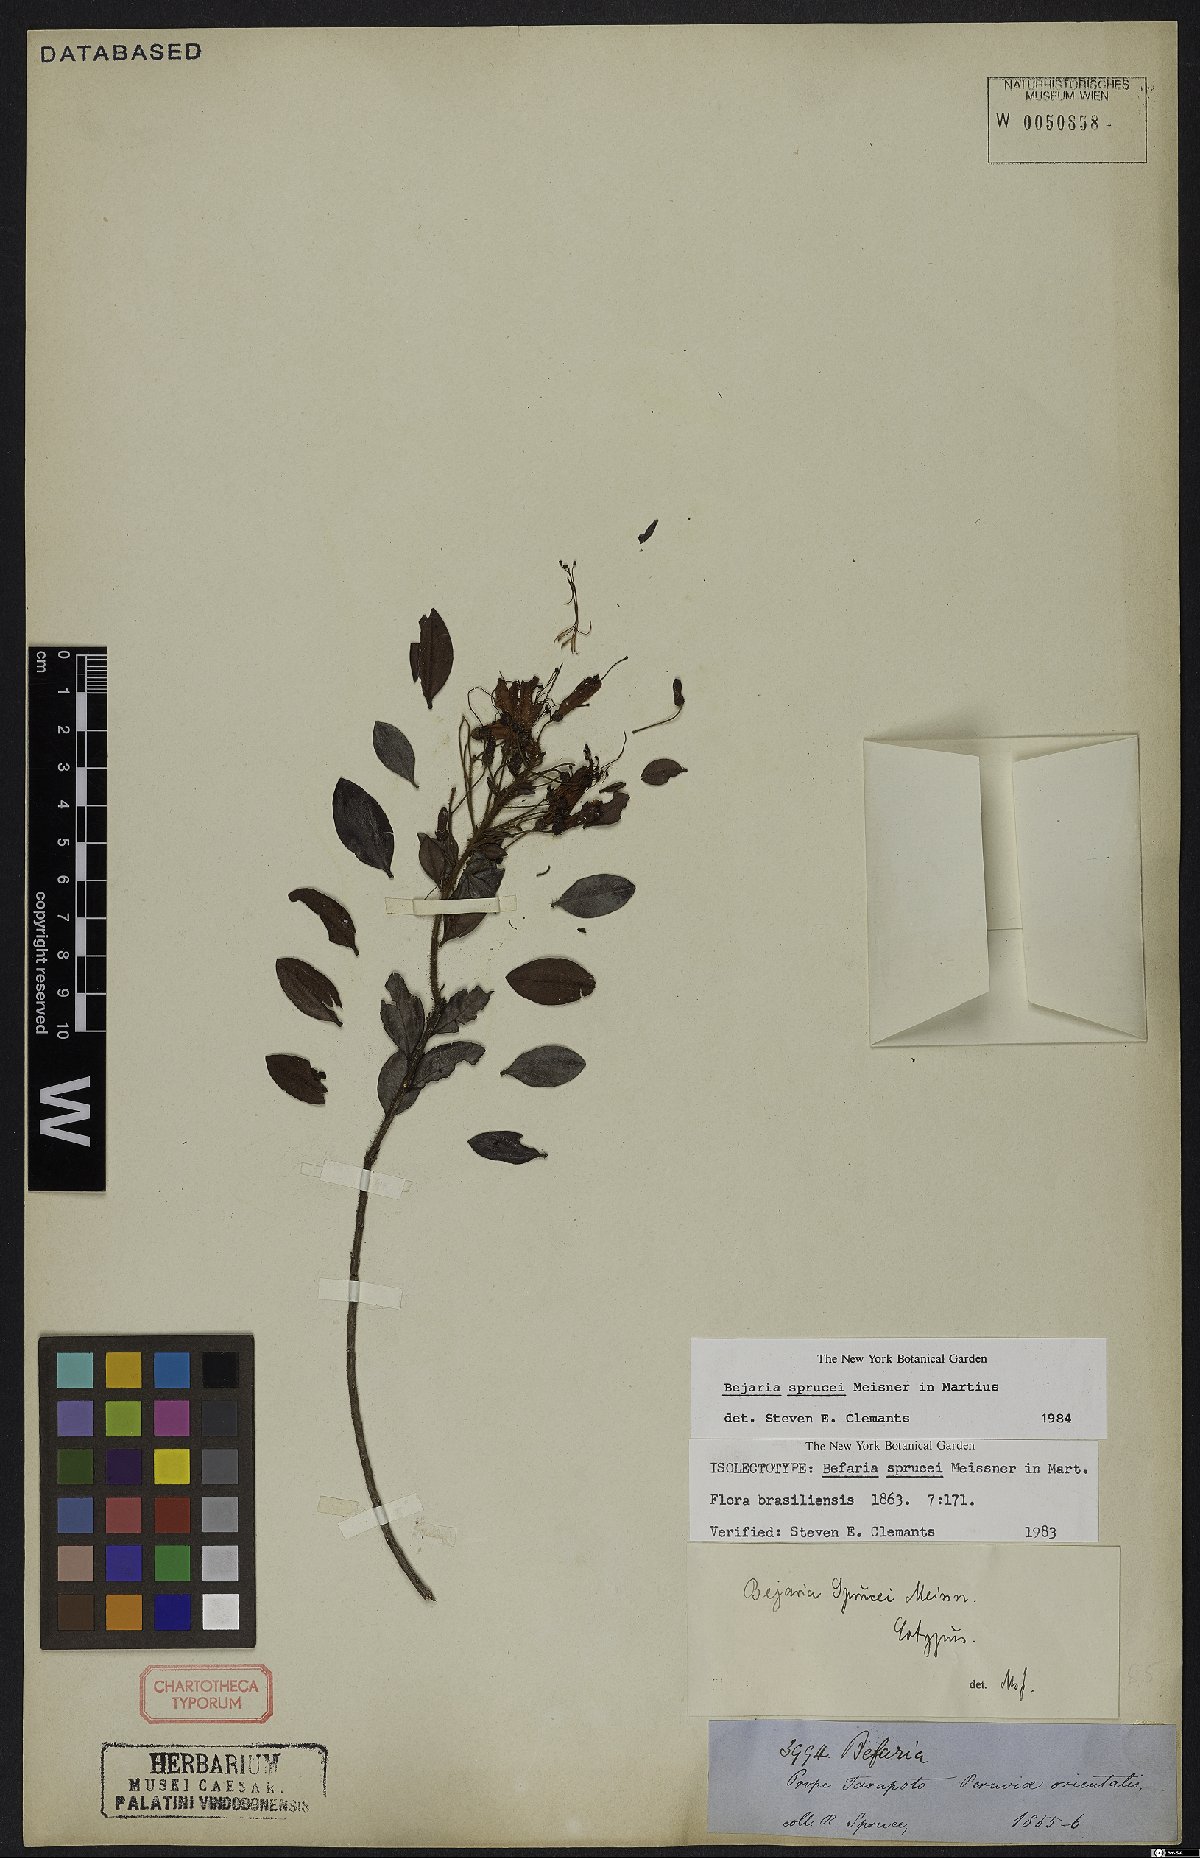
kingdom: Plantae
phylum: Tracheophyta
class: Magnoliopsida
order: Ericales
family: Ericaceae
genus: Bejaria
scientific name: Bejaria sprucei
